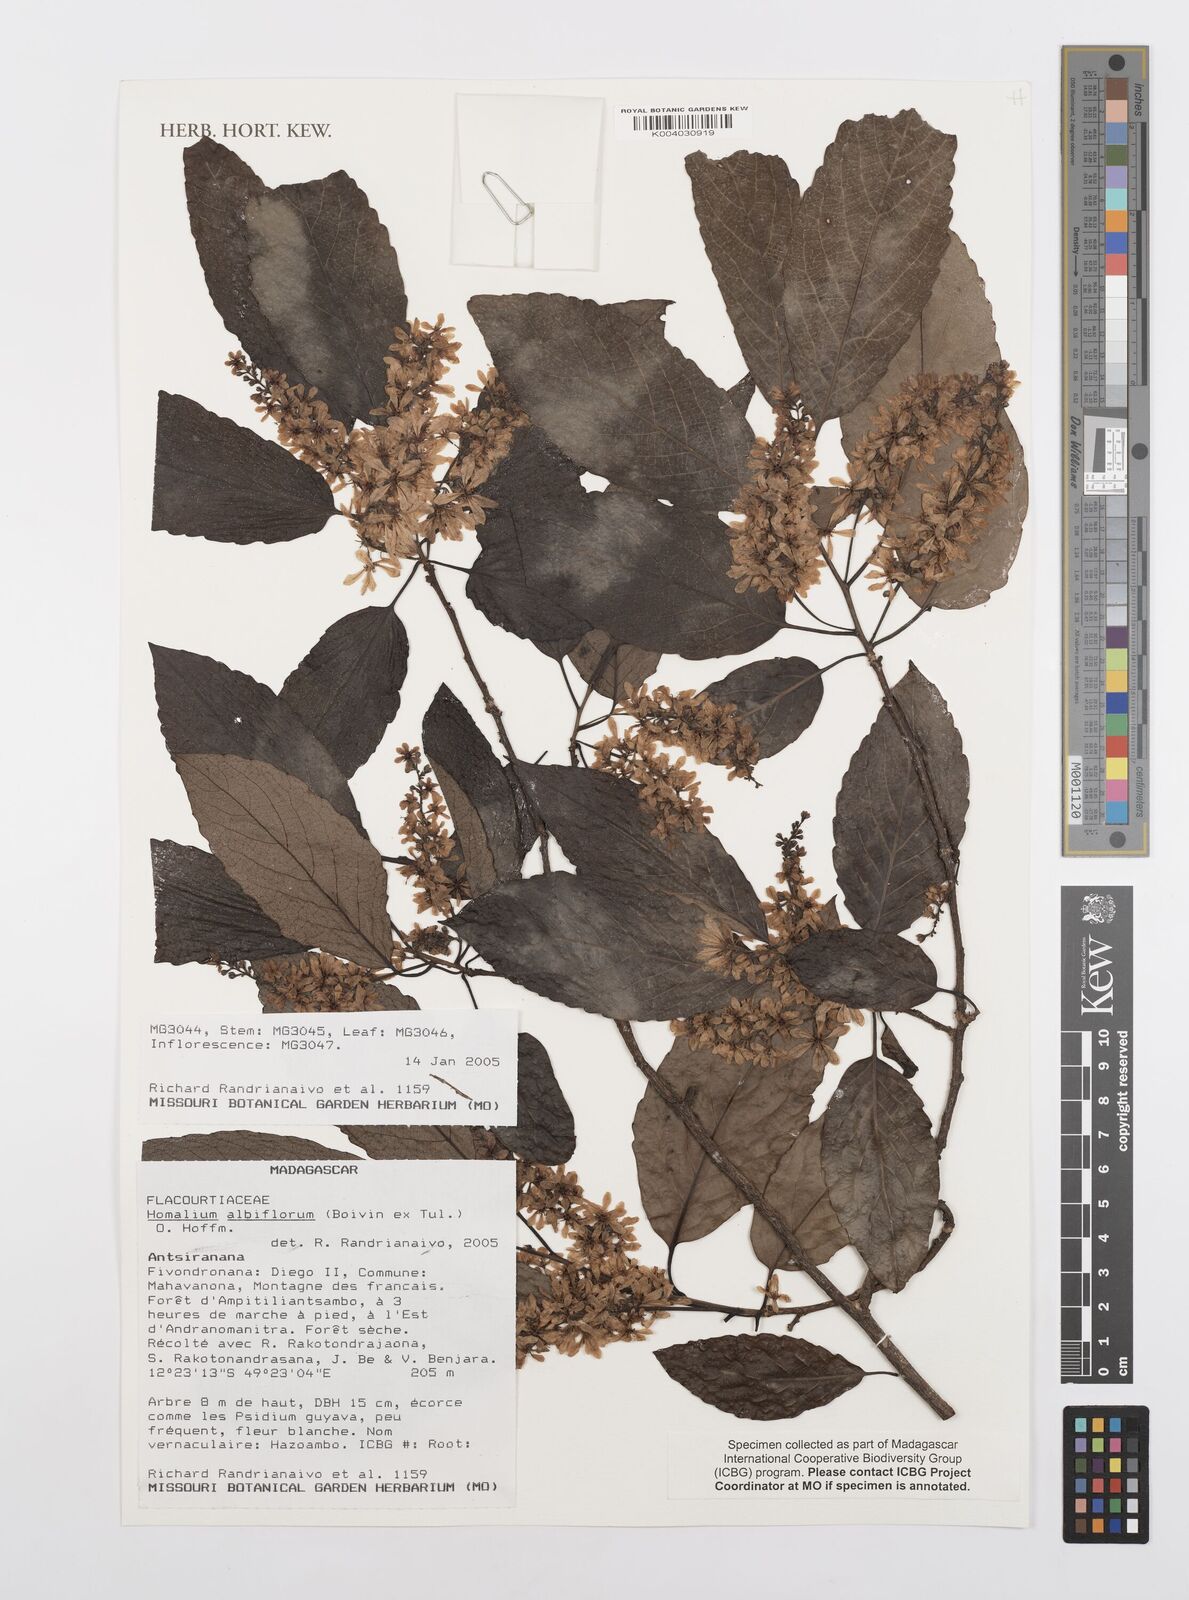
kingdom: Plantae
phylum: Tracheophyta
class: Magnoliopsida
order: Malpighiales
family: Salicaceae
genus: Homalium
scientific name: Homalium albiflorum
